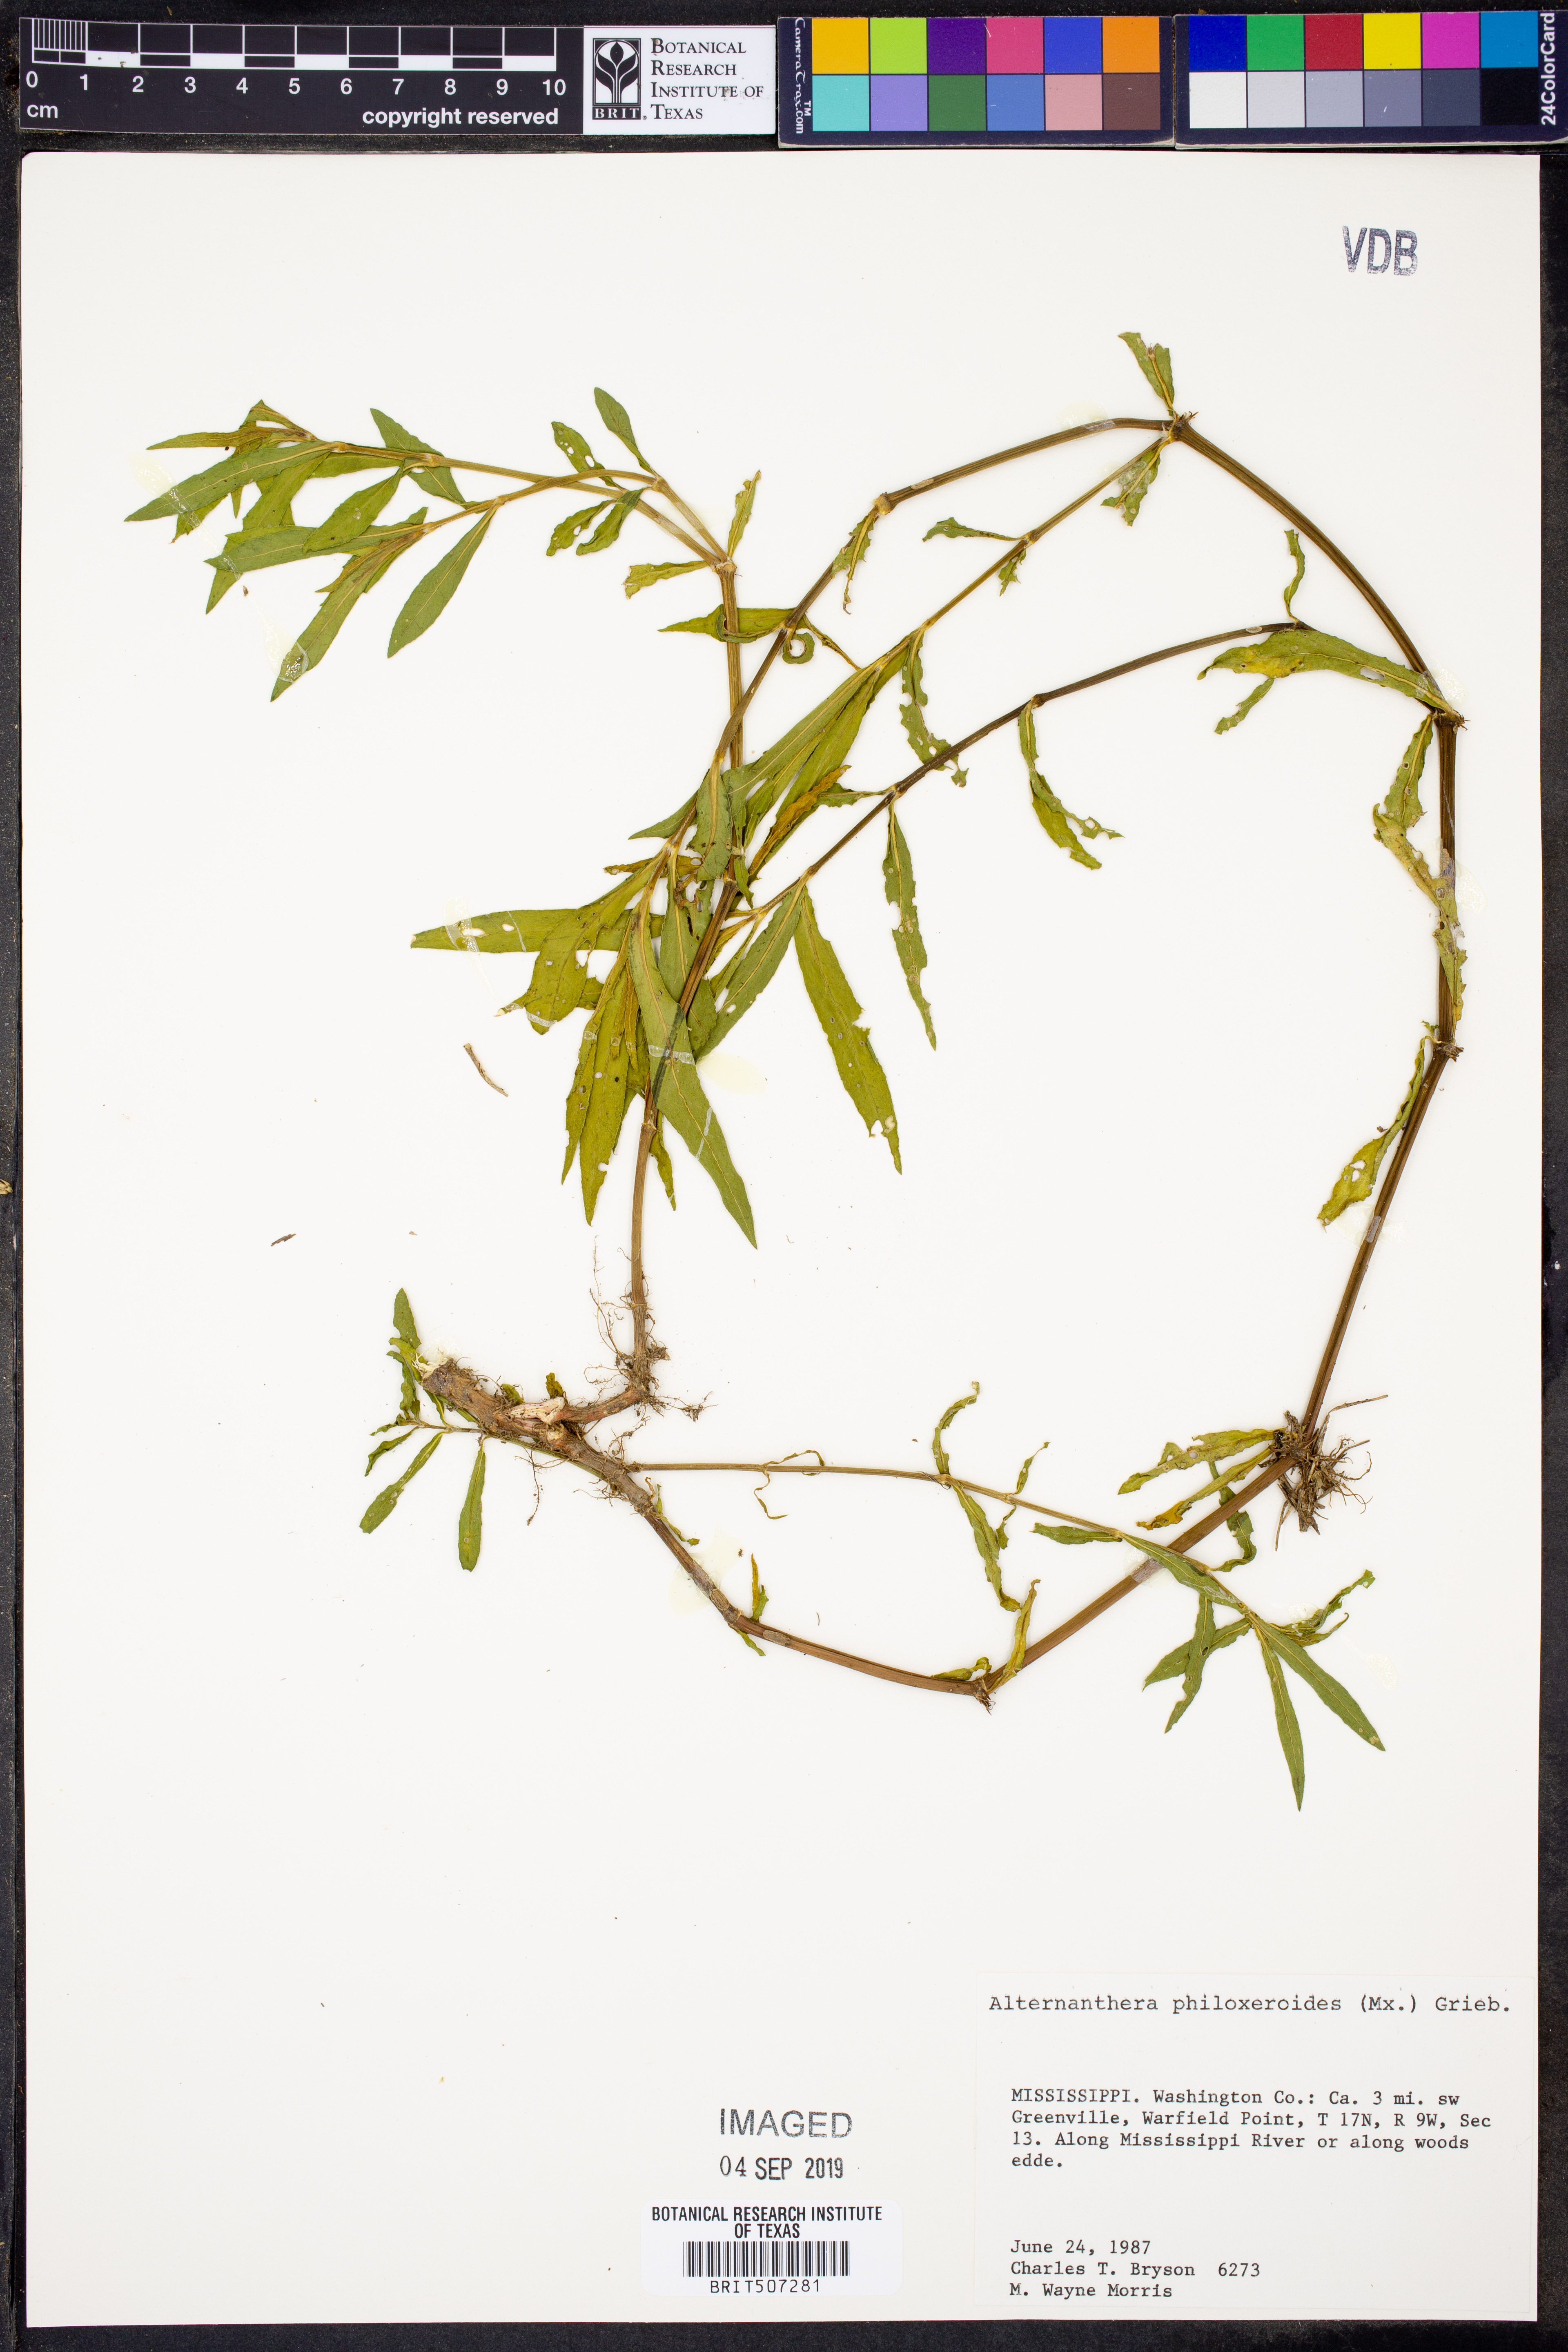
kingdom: Plantae
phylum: Tracheophyta
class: Magnoliopsida
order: Caryophyllales
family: Amaranthaceae
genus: Alternanthera
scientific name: Alternanthera philoxeroides
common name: Alligatorweed
